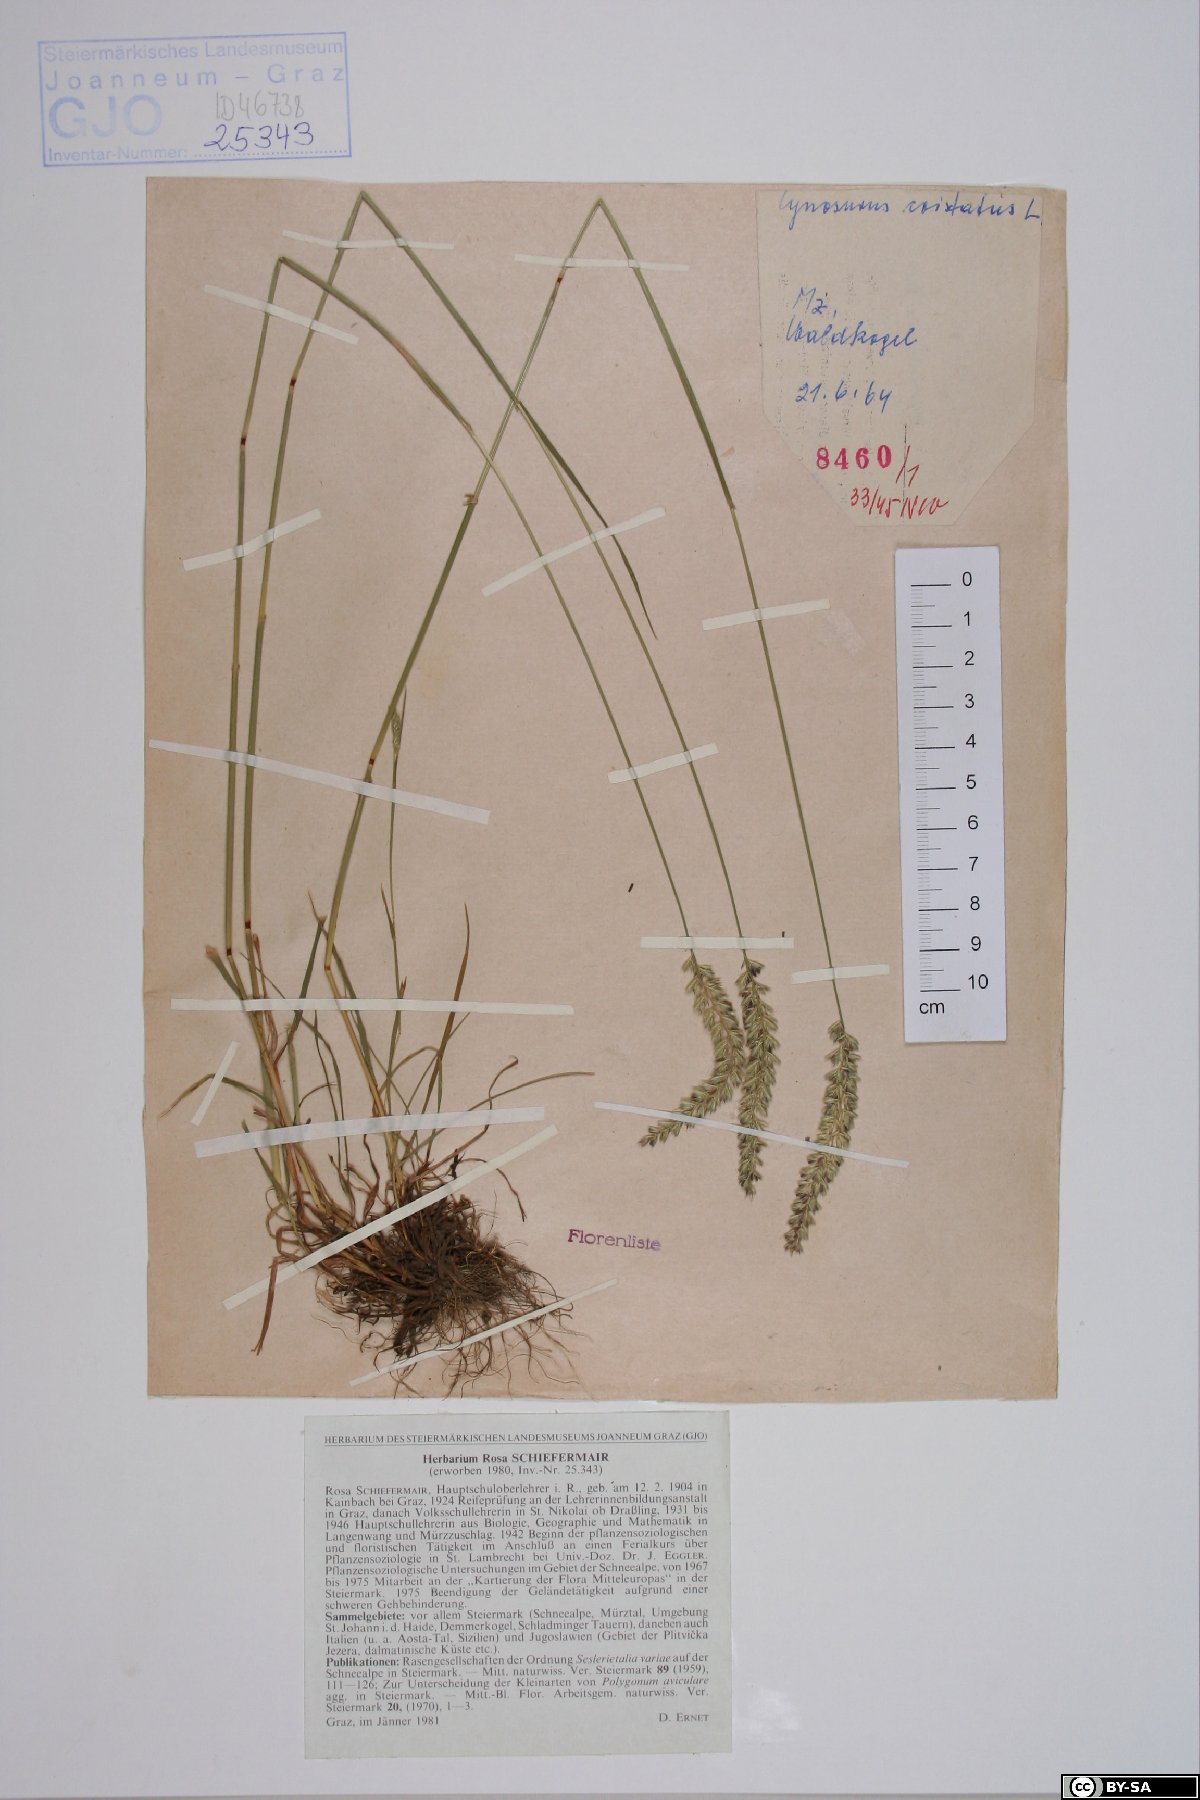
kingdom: Plantae
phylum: Tracheophyta
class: Liliopsida
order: Poales
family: Poaceae
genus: Cynosurus
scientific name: Cynosurus cristatus
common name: Crested dog's-tail
